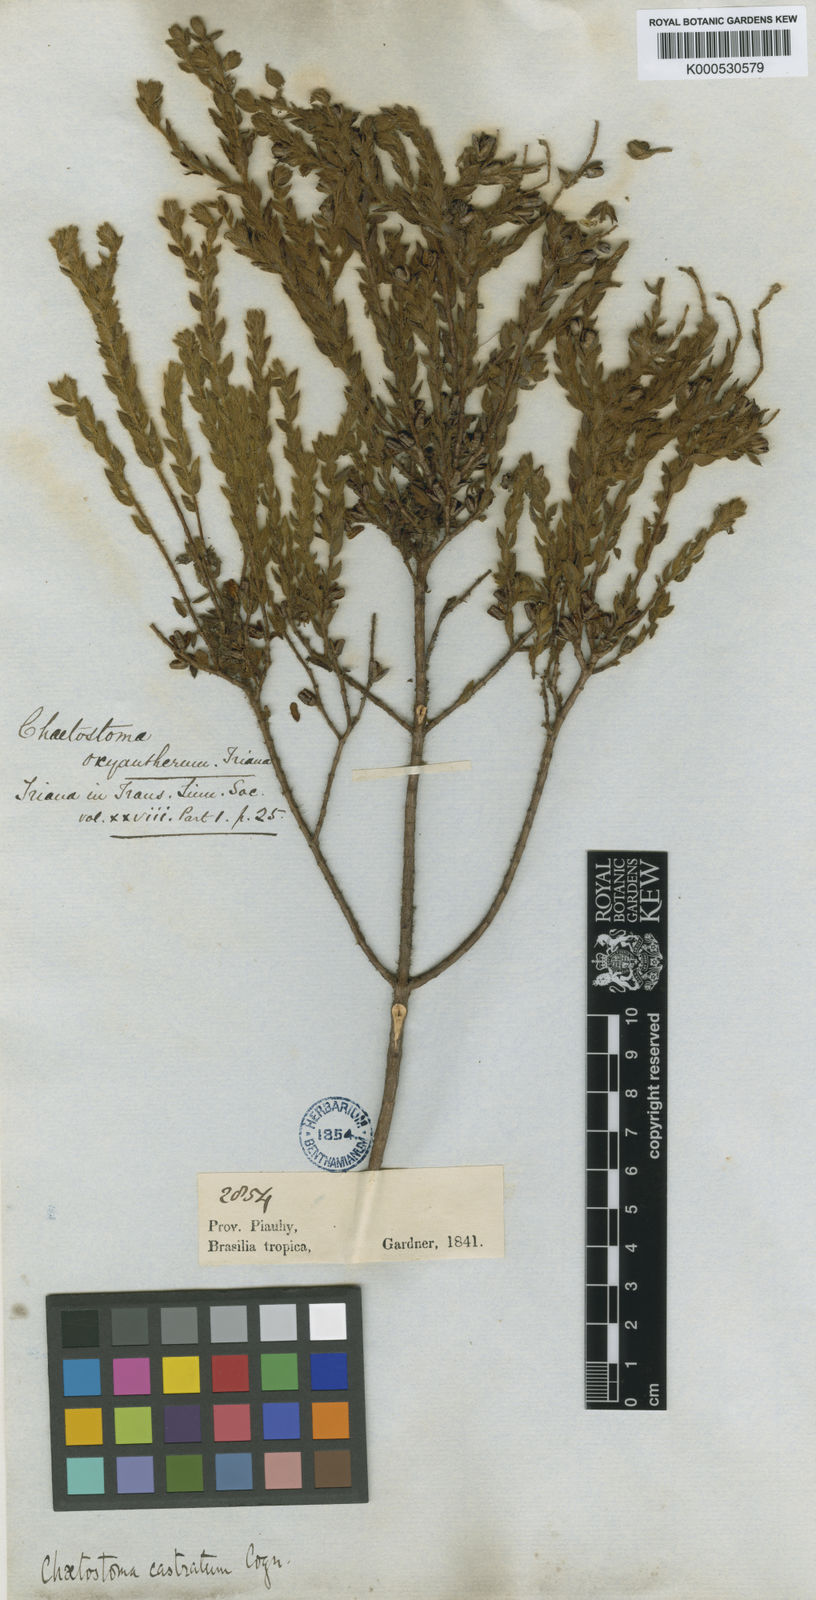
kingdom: Plantae
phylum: Tracheophyta
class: Magnoliopsida
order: Myrtales
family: Melastomataceae
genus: Microlicia
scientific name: Microlicia castrata
